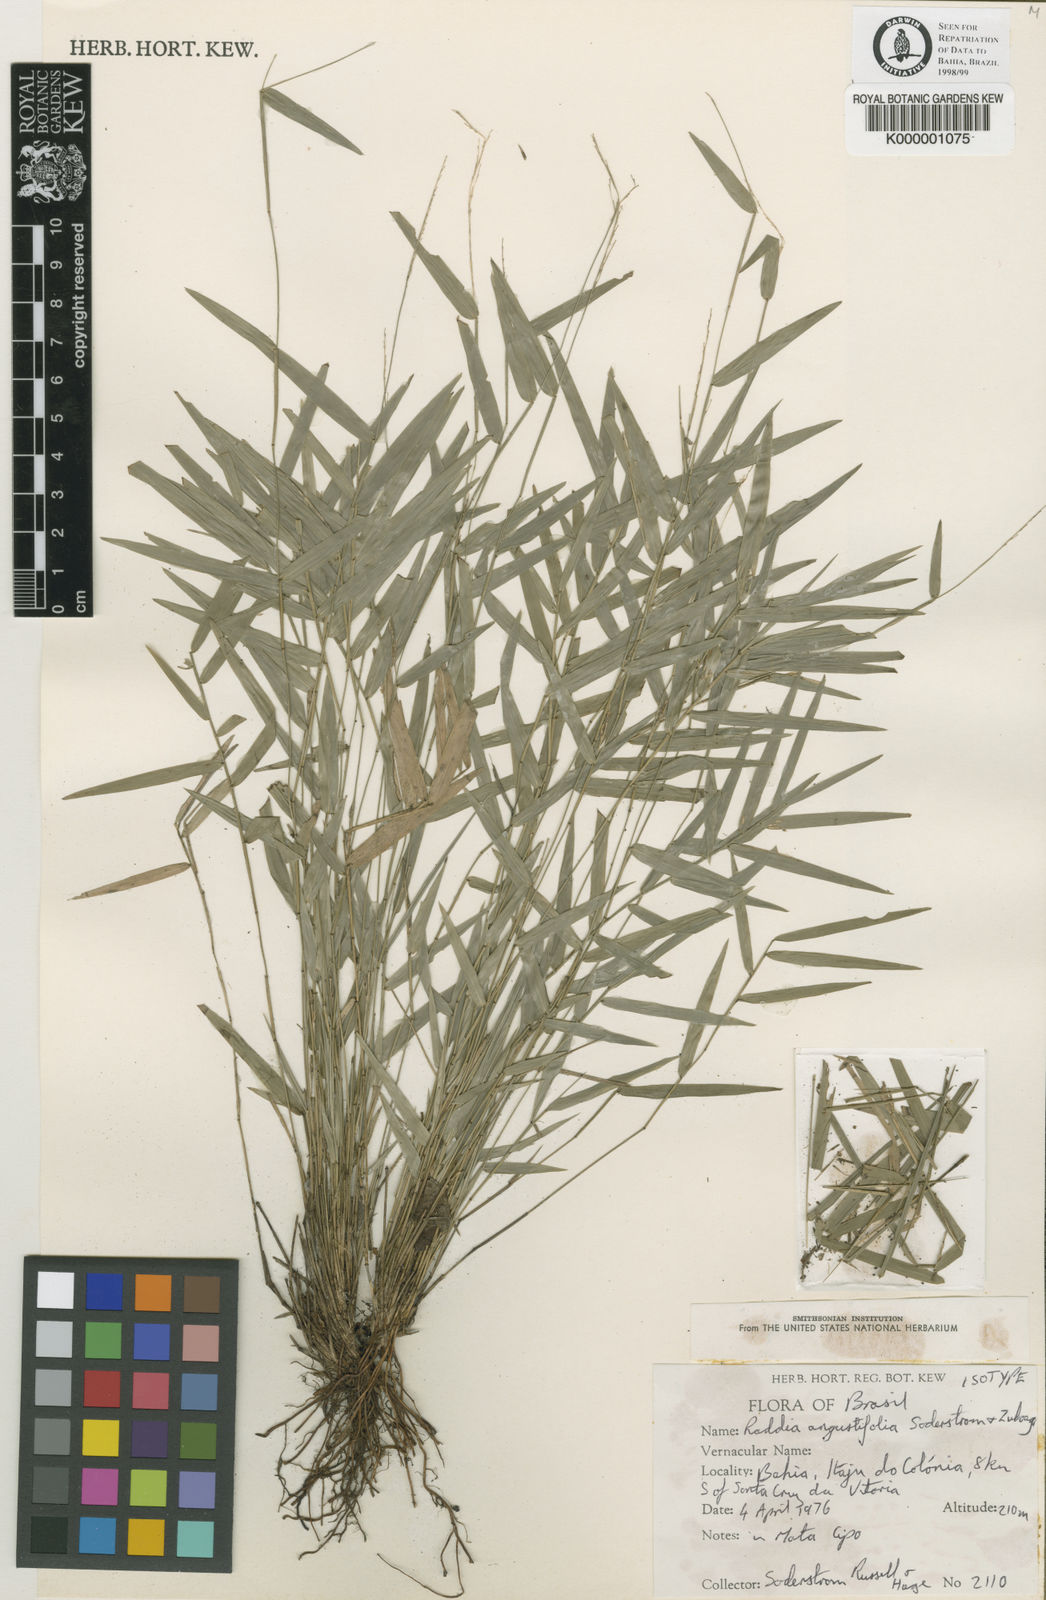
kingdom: Plantae
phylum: Tracheophyta
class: Liliopsida
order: Poales
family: Poaceae
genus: Raddia
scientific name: Raddia angustifolia
